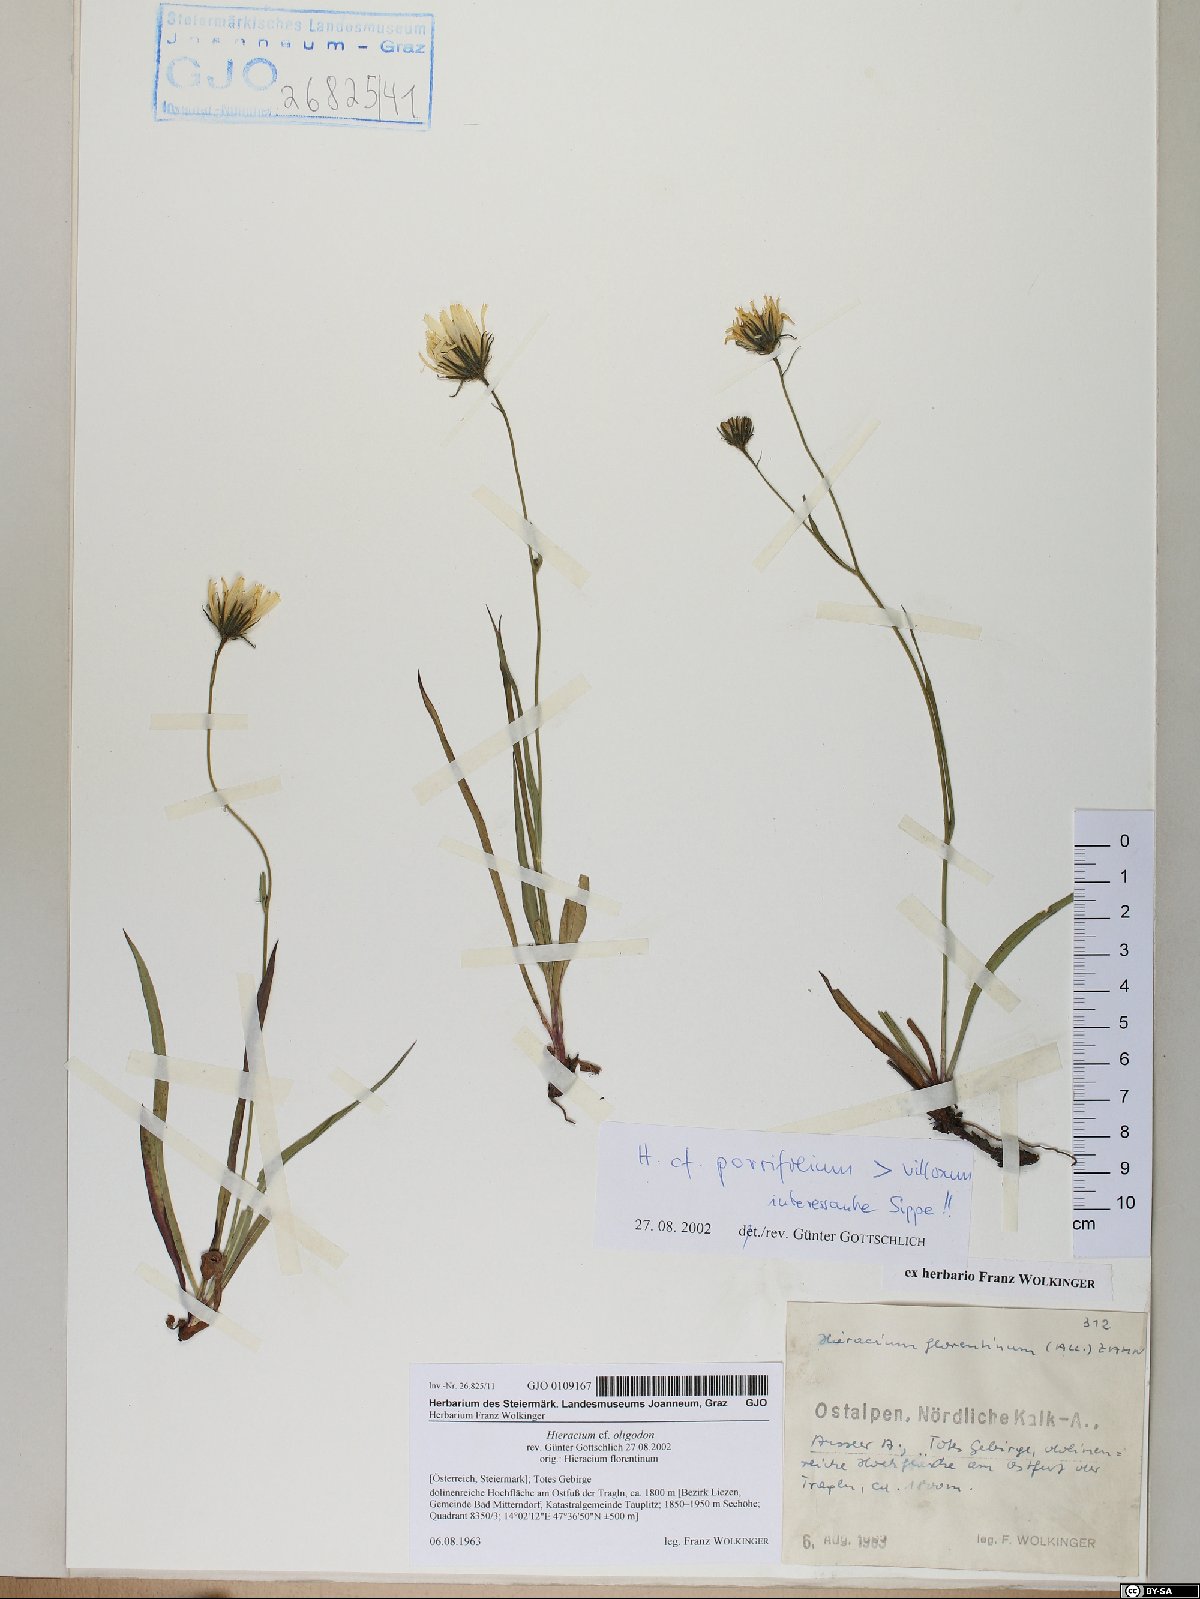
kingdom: Plantae
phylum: Tracheophyta
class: Magnoliopsida
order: Asterales
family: Asteraceae
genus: Hieracium
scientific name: Hieracium oligodon
